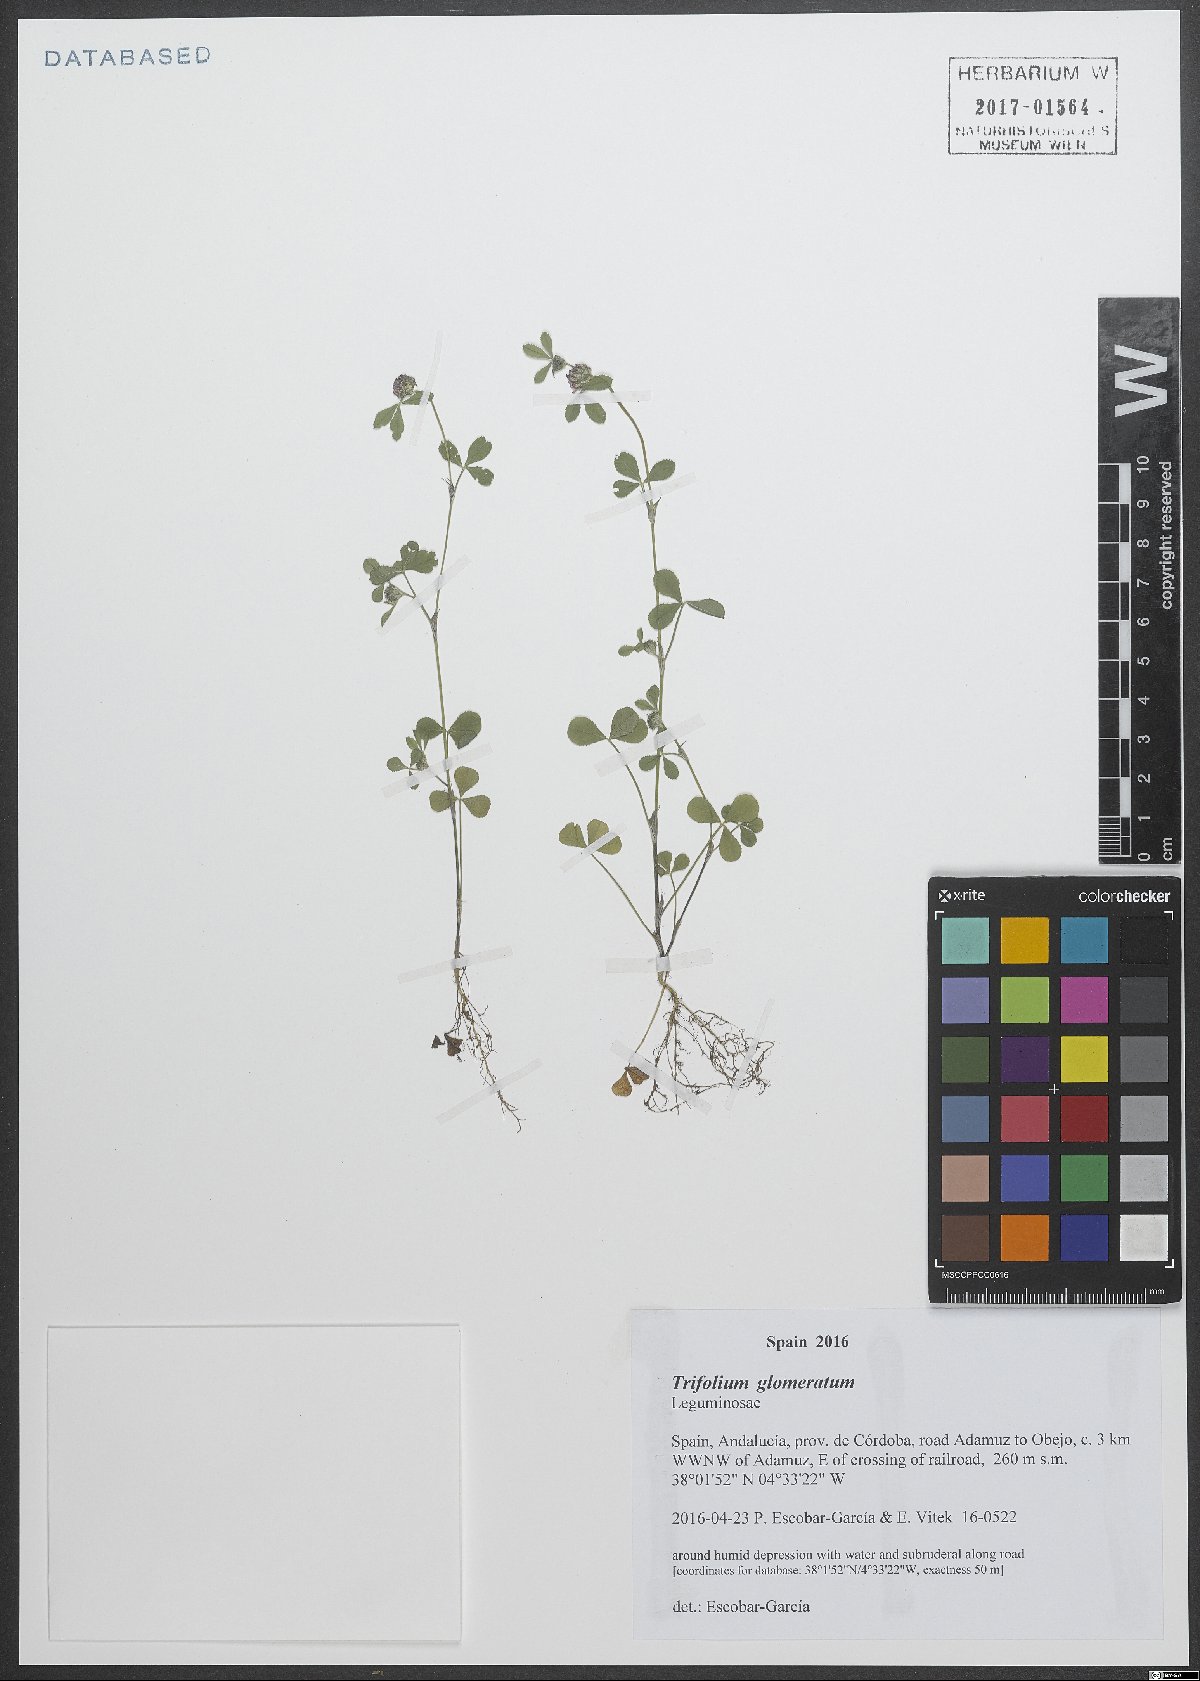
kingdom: Plantae
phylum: Tracheophyta
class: Magnoliopsida
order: Fabales
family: Fabaceae
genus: Trifolium
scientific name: Trifolium glomeratum
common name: Clustered clover
